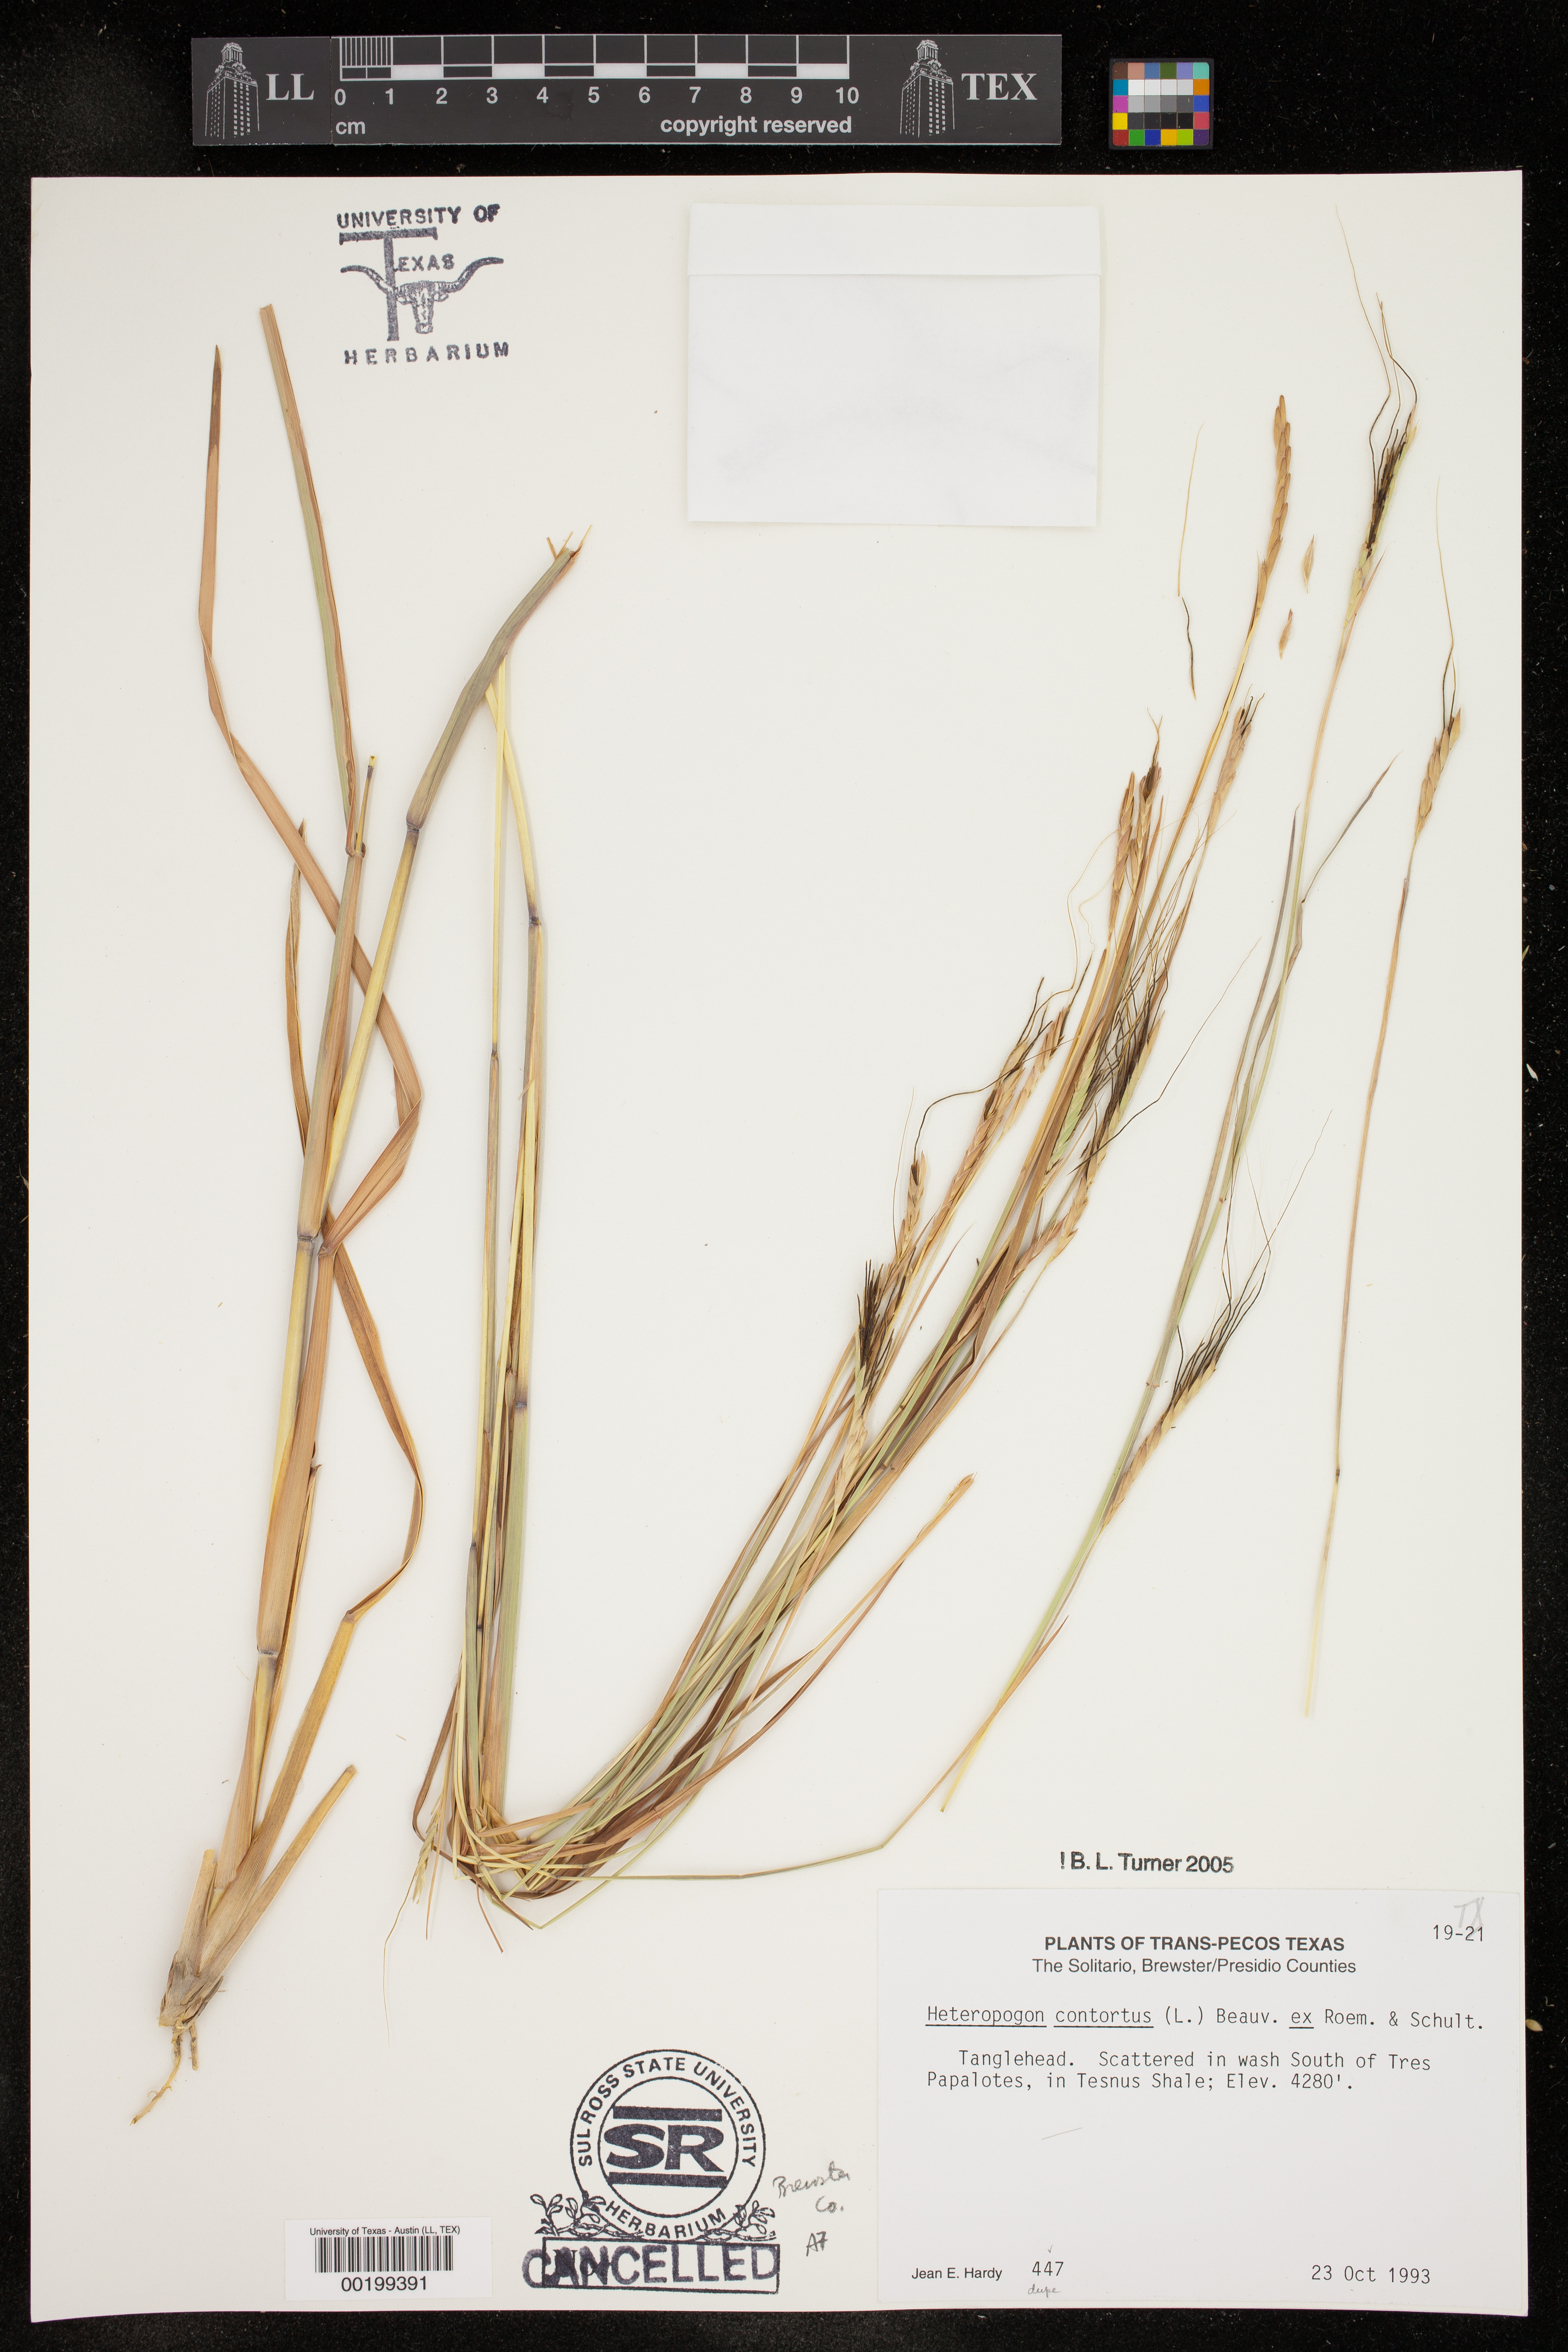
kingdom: Plantae
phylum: Tracheophyta
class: Liliopsida
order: Poales
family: Poaceae
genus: Heteropogon
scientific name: Heteropogon contortus
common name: Tanglehead
